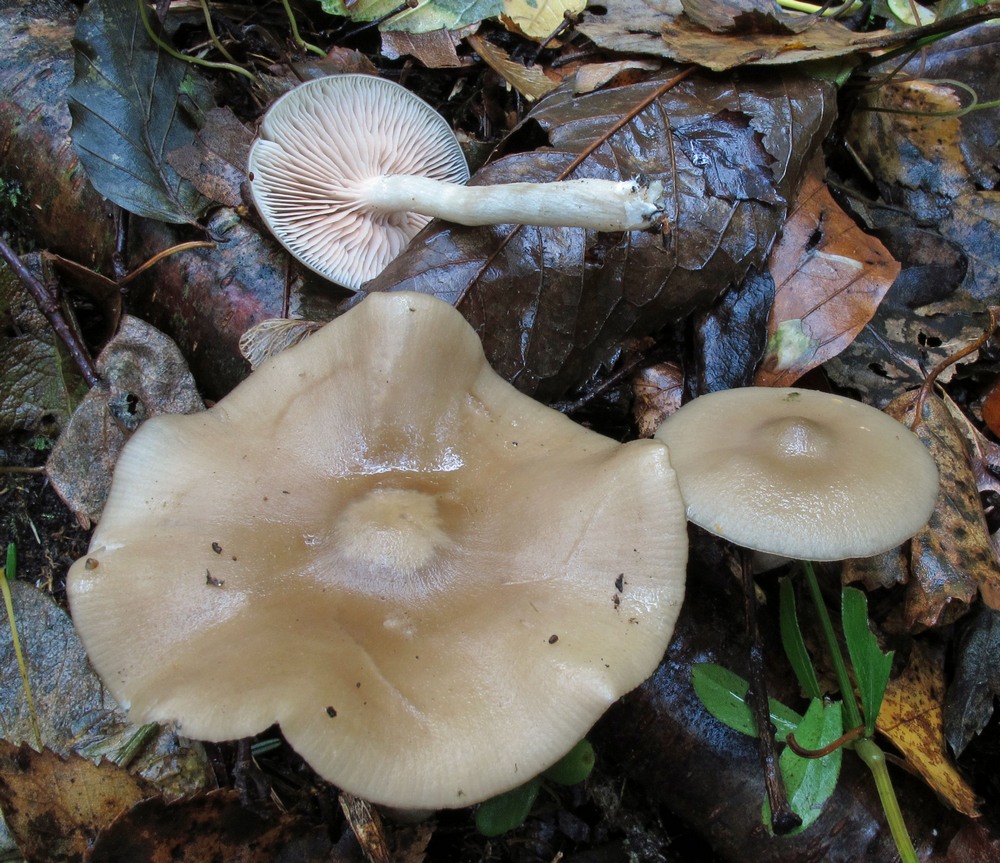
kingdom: Fungi
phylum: Basidiomycota
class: Agaricomycetes
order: Agaricales
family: Entolomataceae
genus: Entoloma
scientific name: Entoloma rhodopolium
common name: skov-rødblad
